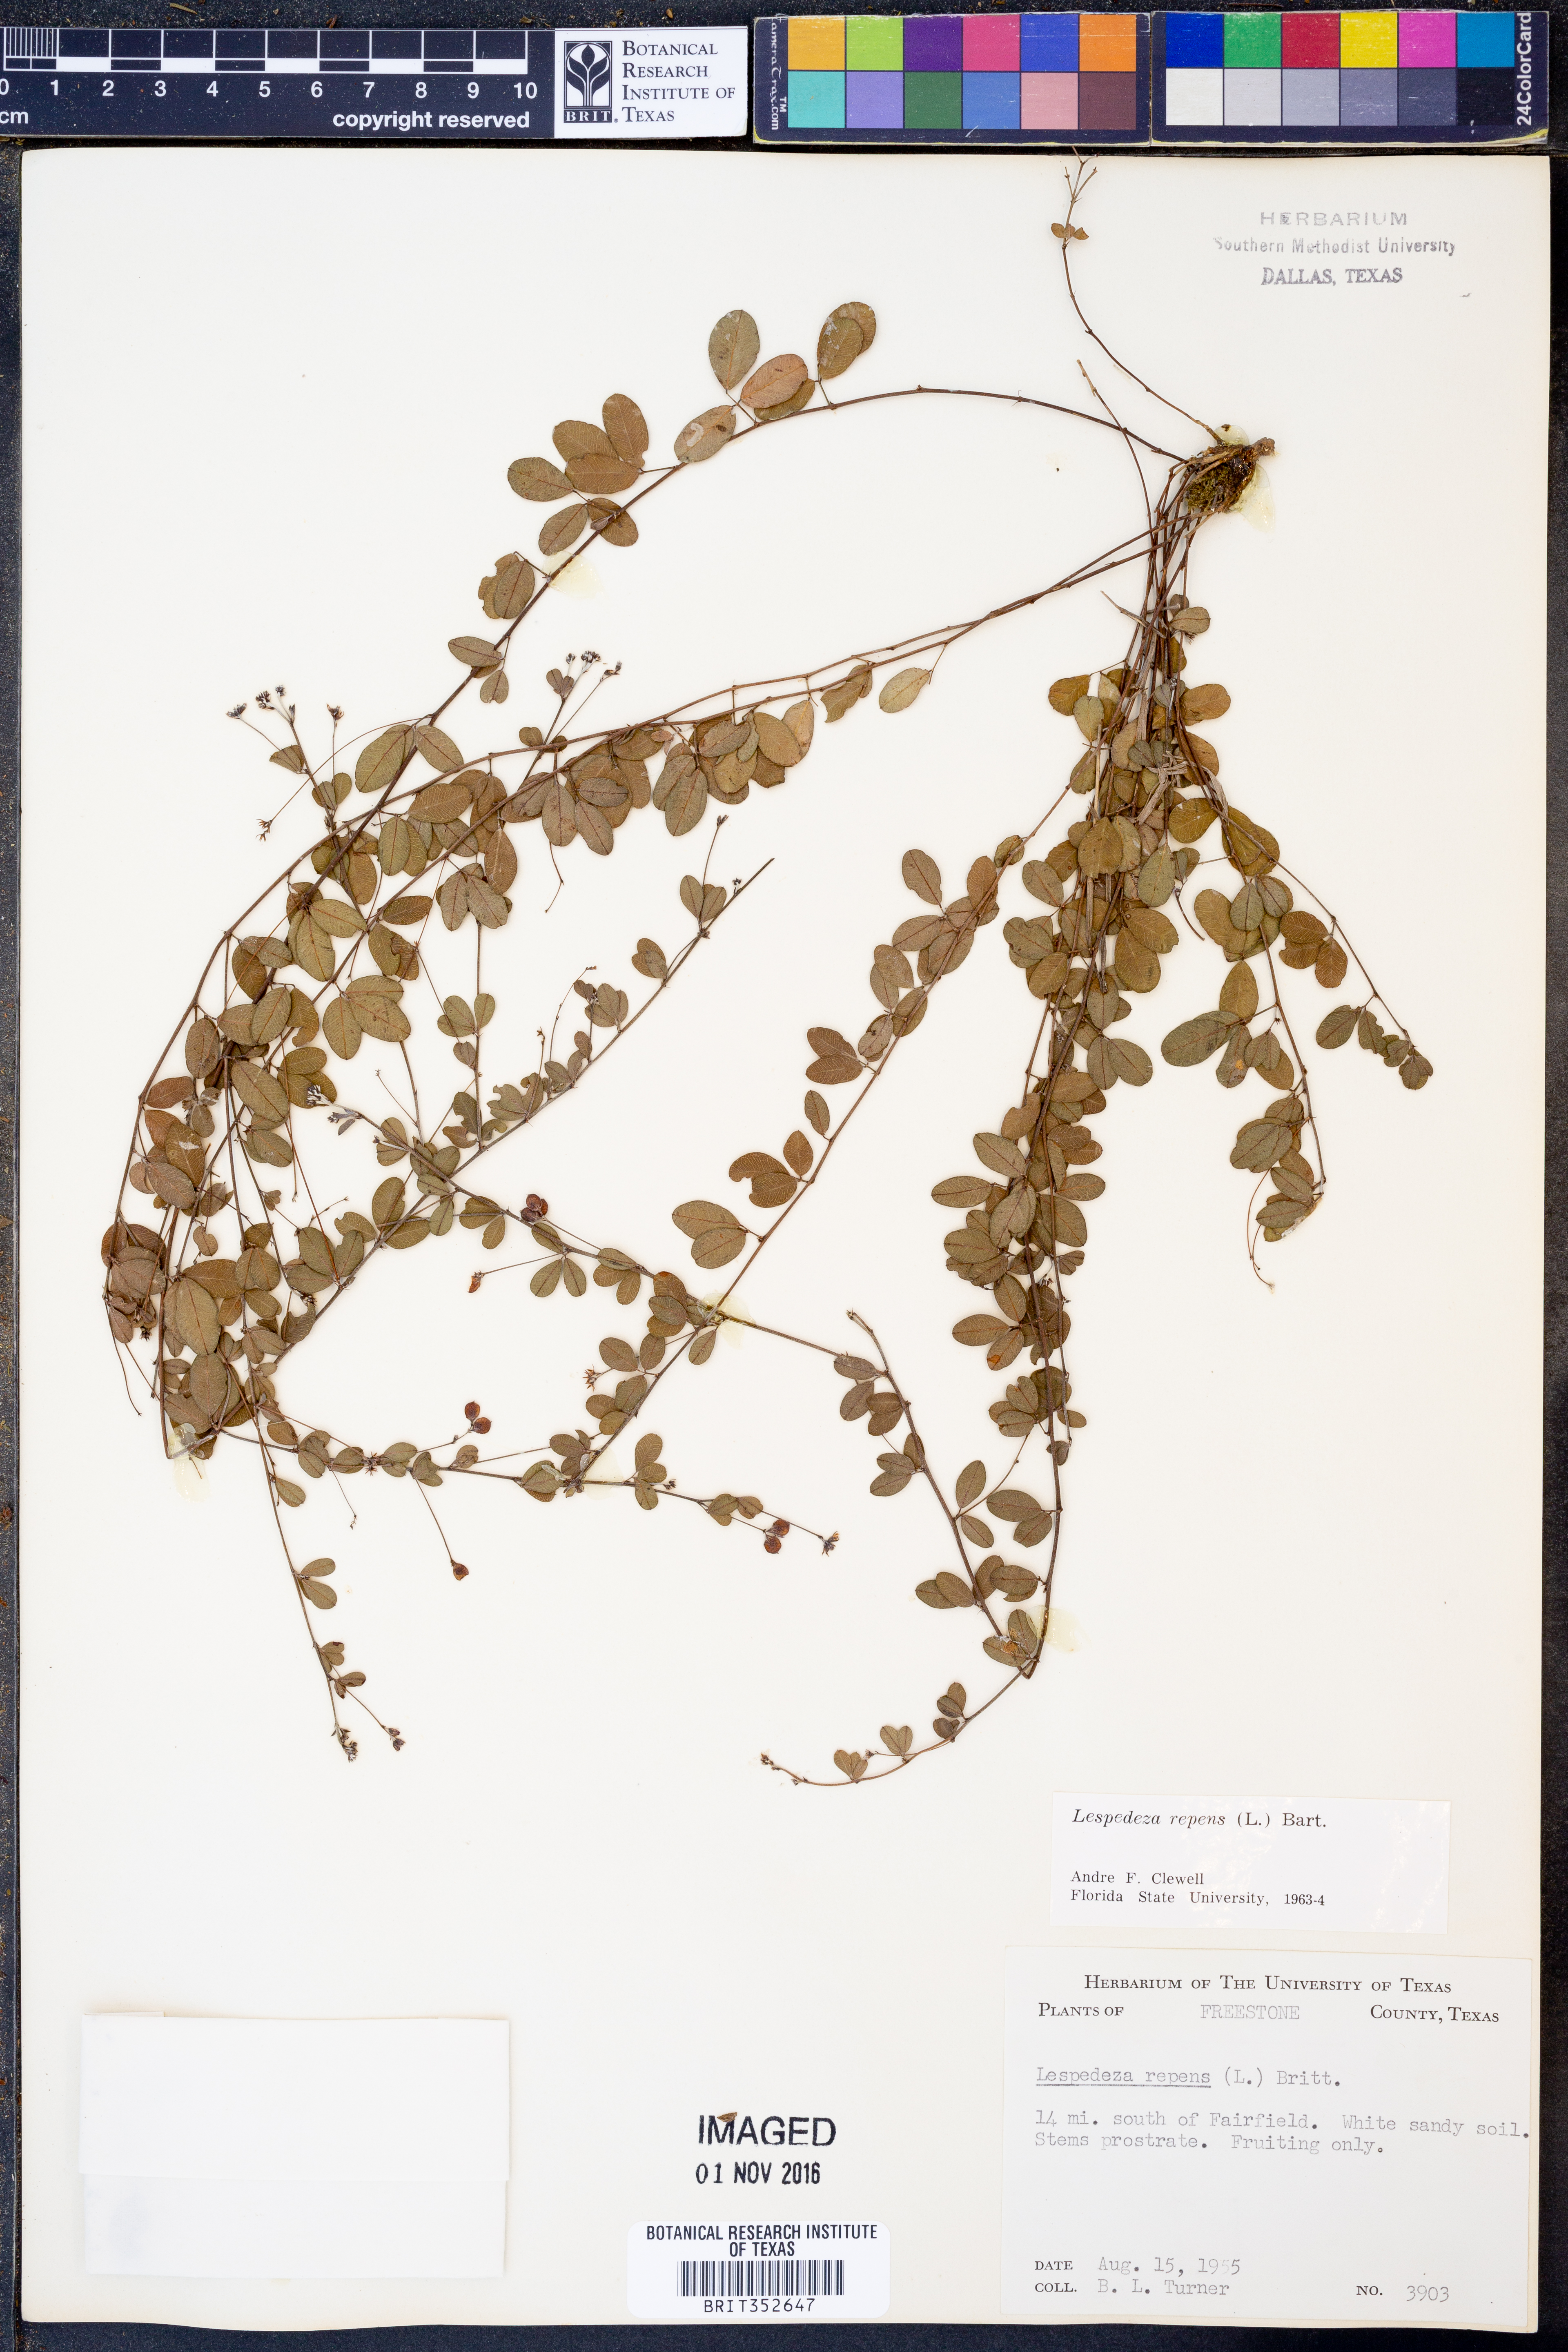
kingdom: Plantae
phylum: Tracheophyta
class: Magnoliopsida
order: Fabales
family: Fabaceae
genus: Lespedeza
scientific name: Lespedeza repens
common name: Creeping bush-clover
